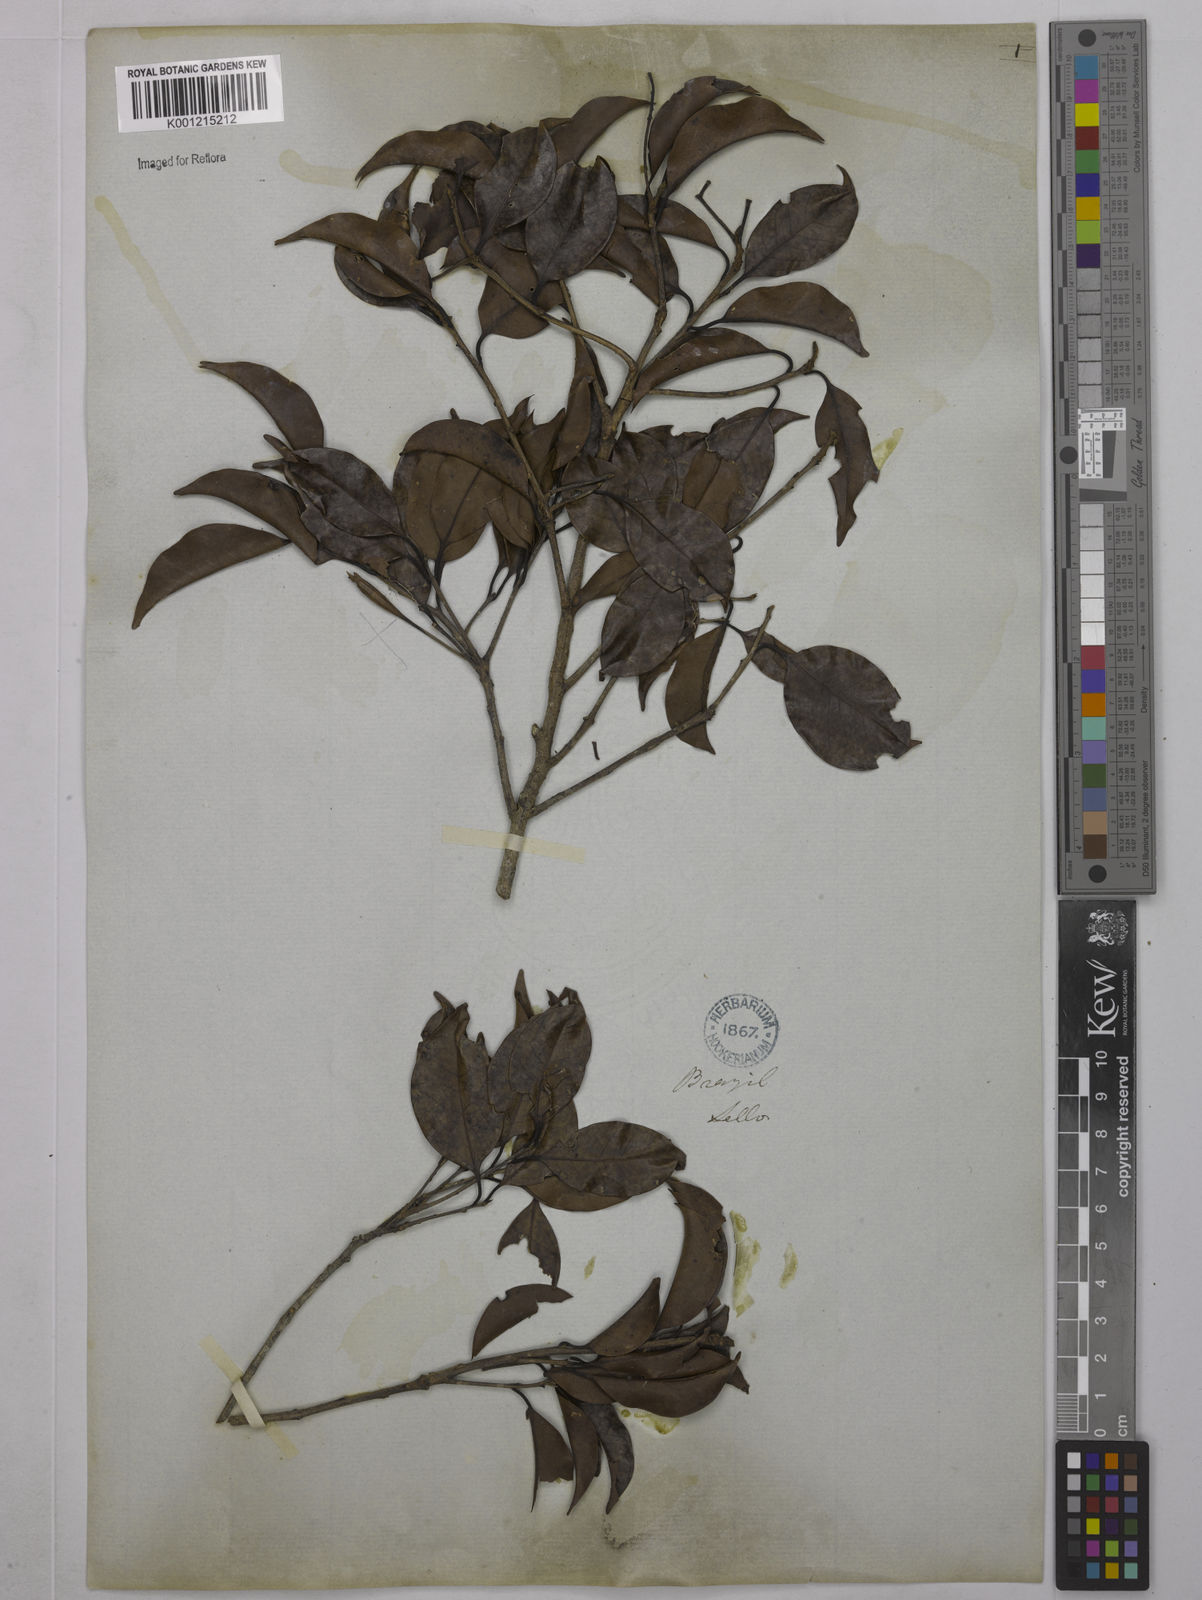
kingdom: Plantae
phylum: Tracheophyta
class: Magnoliopsida
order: Malpighiales
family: Euphorbiaceae
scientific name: Euphorbiaceae
